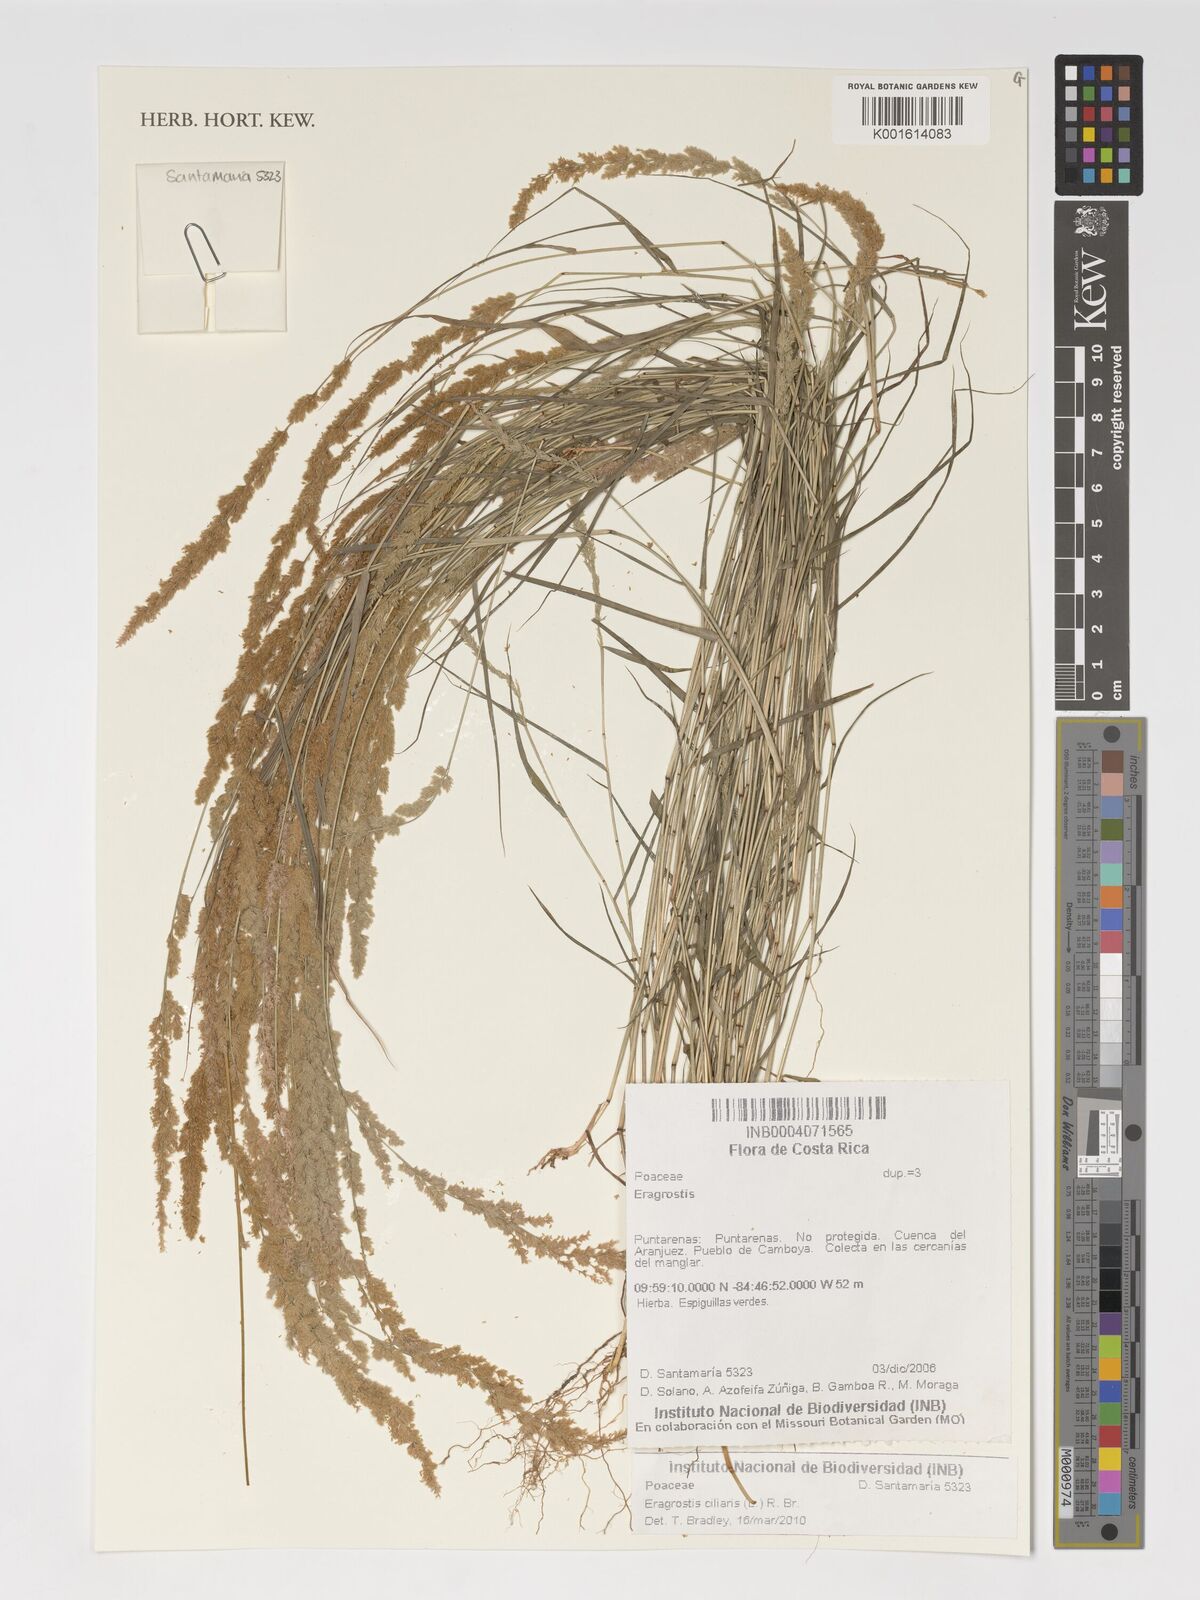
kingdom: Plantae
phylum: Tracheophyta
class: Liliopsida
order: Poales
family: Poaceae
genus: Eragrostis
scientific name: Eragrostis ciliaris
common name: Gophertail lovegrass
